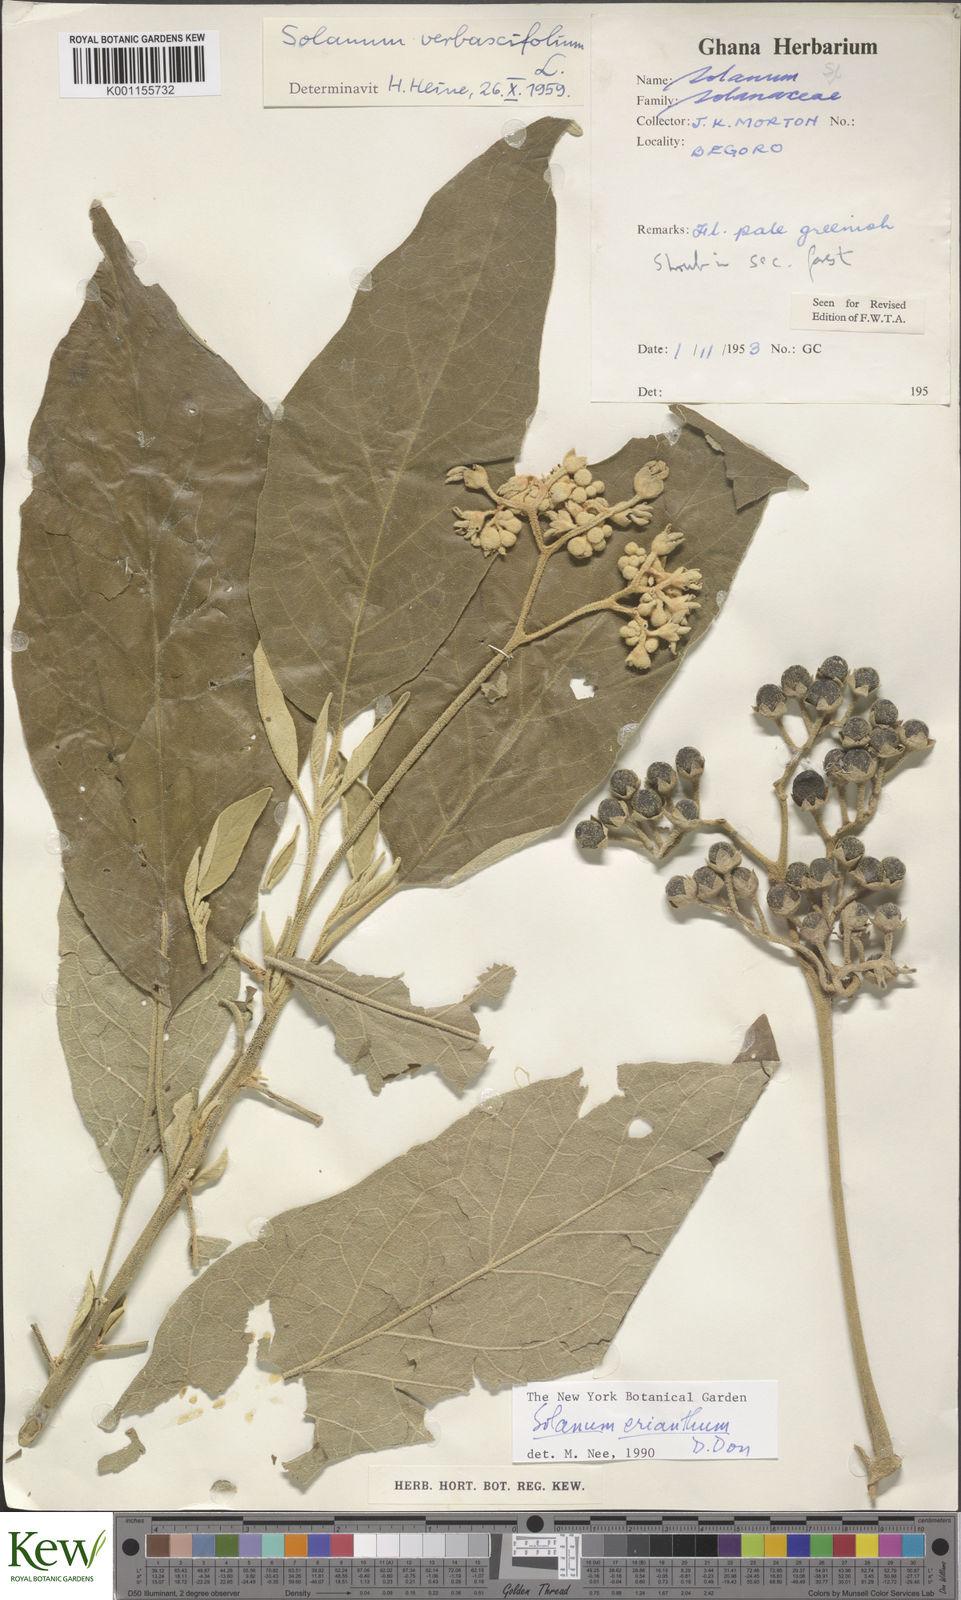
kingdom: Plantae
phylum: Tracheophyta
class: Magnoliopsida
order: Solanales
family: Solanaceae
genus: Solanum
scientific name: Solanum erianthum
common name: Tobacco-tree
